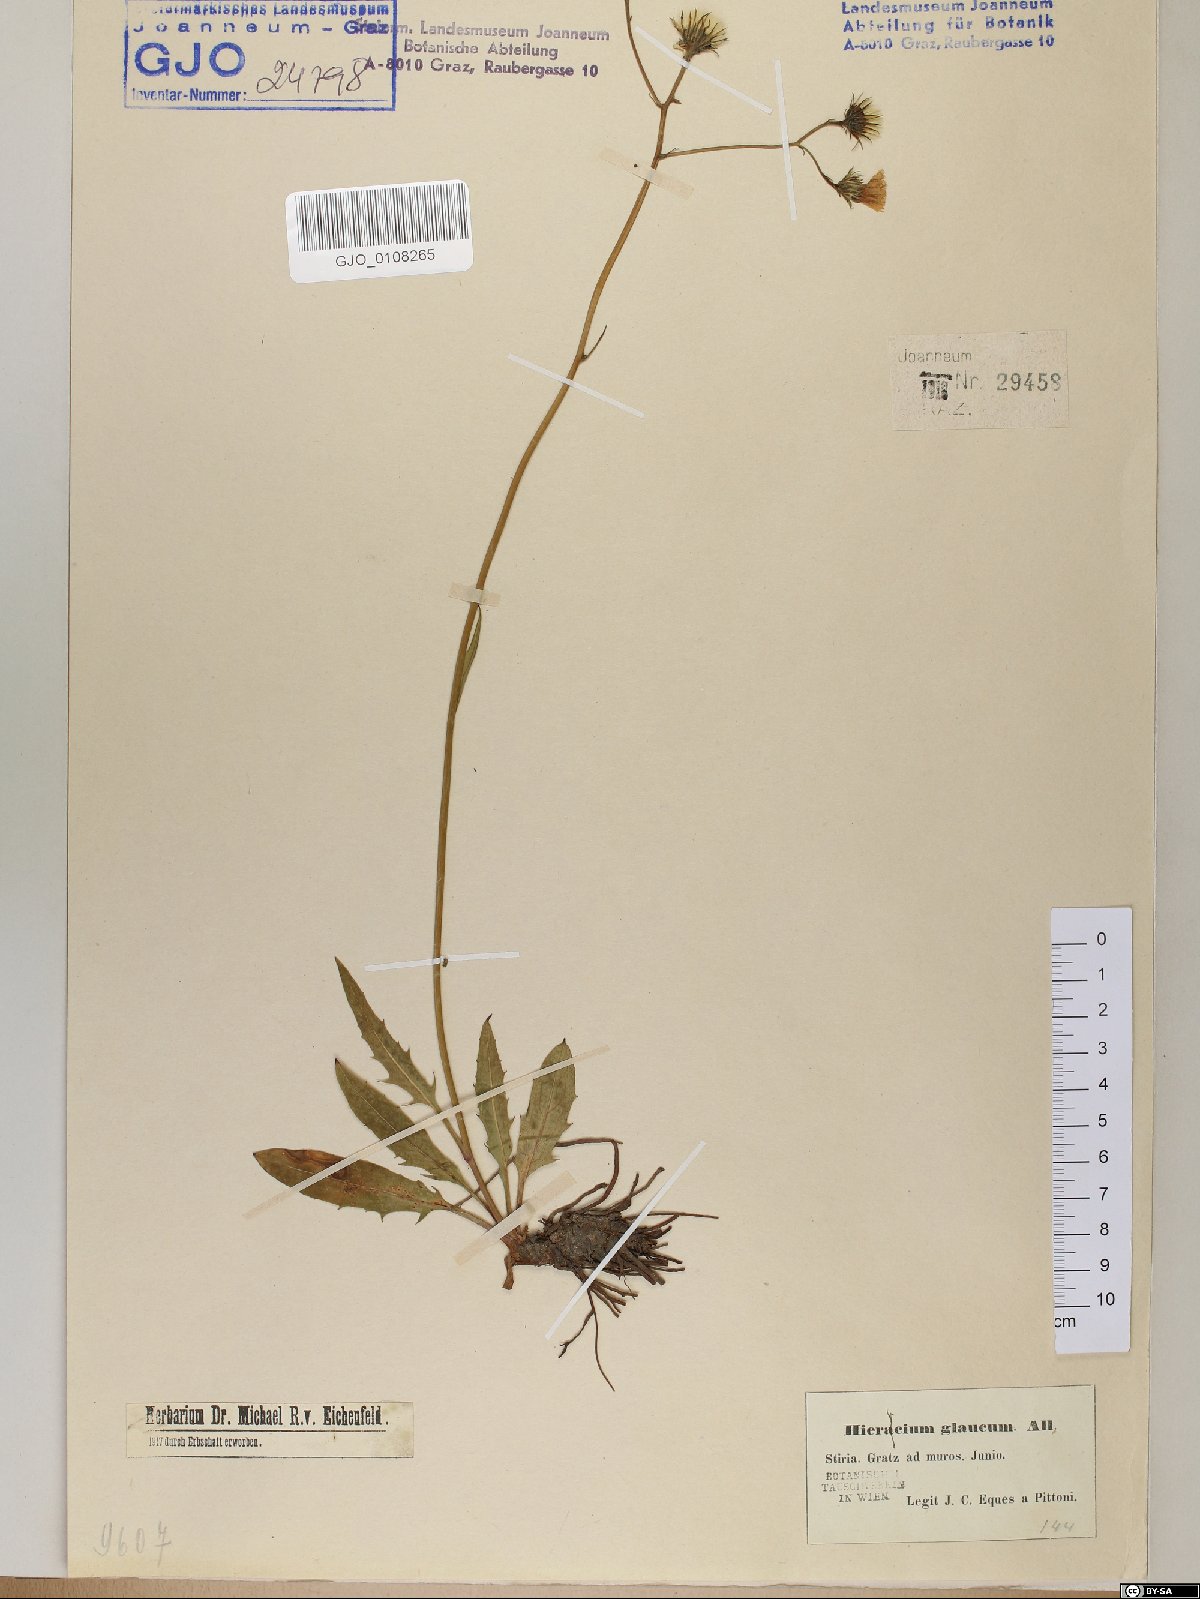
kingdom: Plantae
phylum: Tracheophyta
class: Magnoliopsida
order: Asterales
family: Asteraceae
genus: Hieracium
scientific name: Hieracium glaucum
